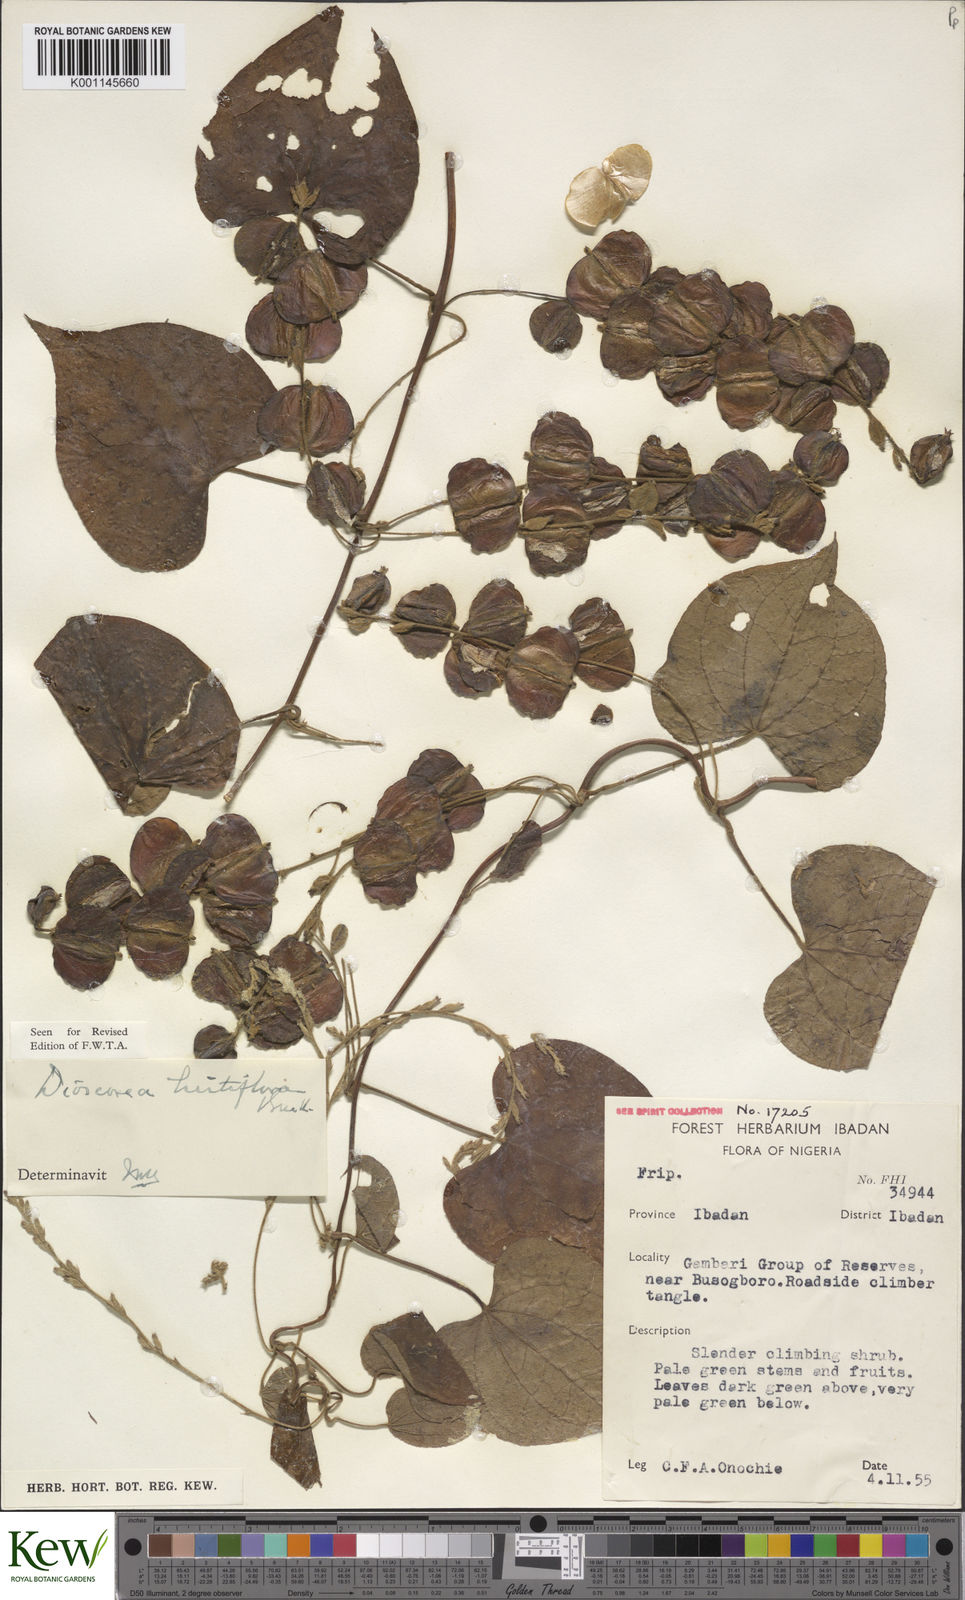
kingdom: Plantae
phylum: Tracheophyta
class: Liliopsida
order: Dioscoreales
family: Dioscoreaceae
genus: Dioscorea
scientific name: Dioscorea hirtiflora
